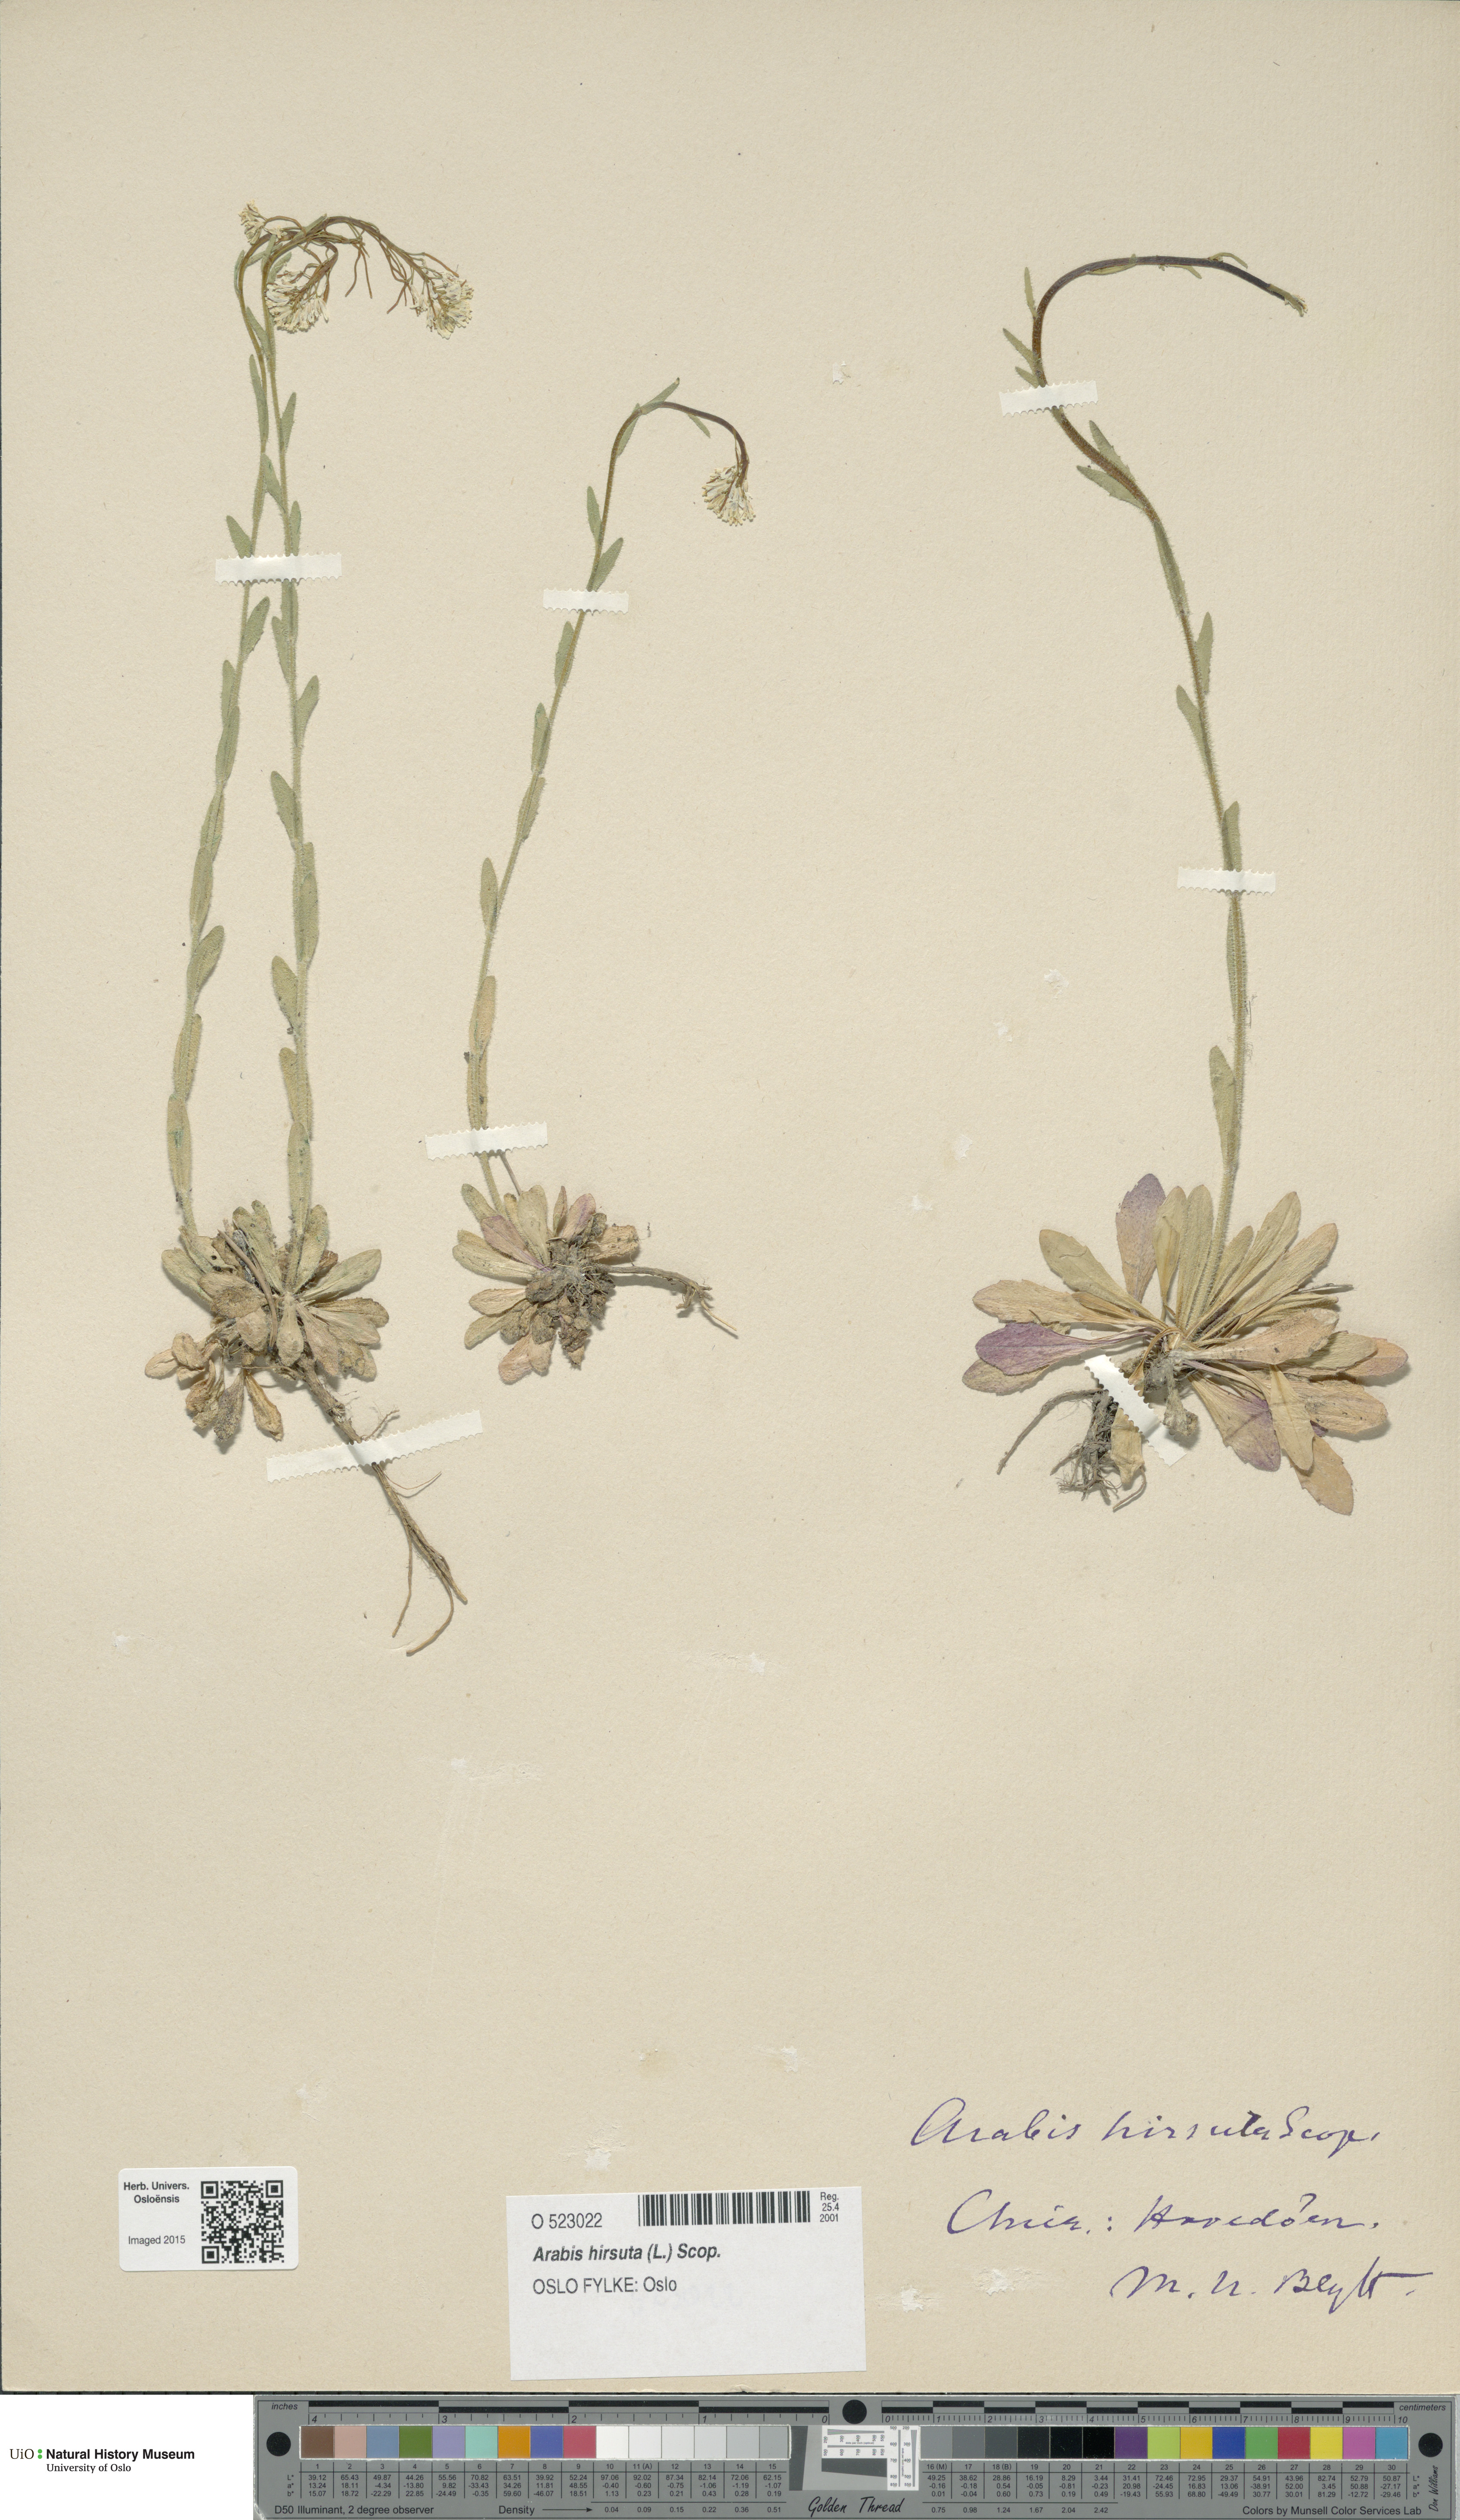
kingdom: Plantae
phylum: Tracheophyta
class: Magnoliopsida
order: Brassicales
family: Brassicaceae
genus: Arabis
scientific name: Arabis hirsuta
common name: Hairy rock-cress
